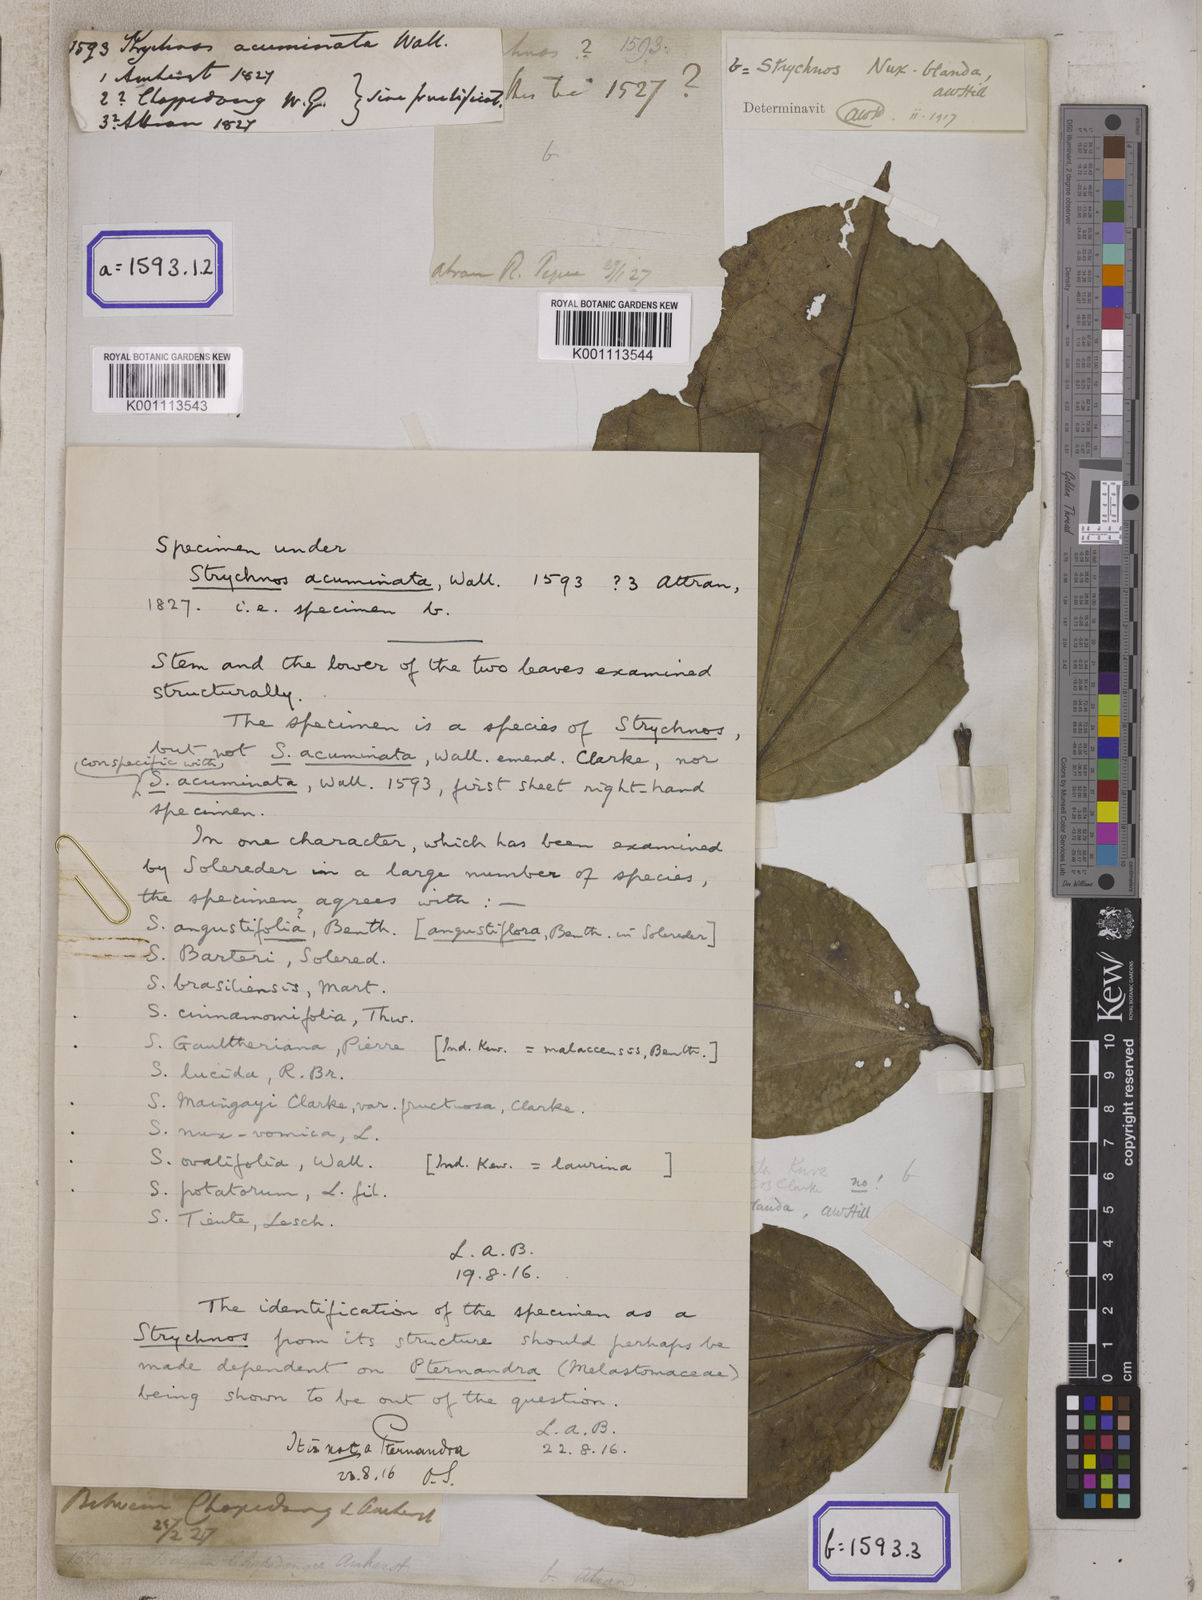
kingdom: Plantae
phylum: Tracheophyta
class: Magnoliopsida
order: Gentianales
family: Loganiaceae
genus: Strychnos
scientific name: Strychnos axillaris
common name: Strychninebush
